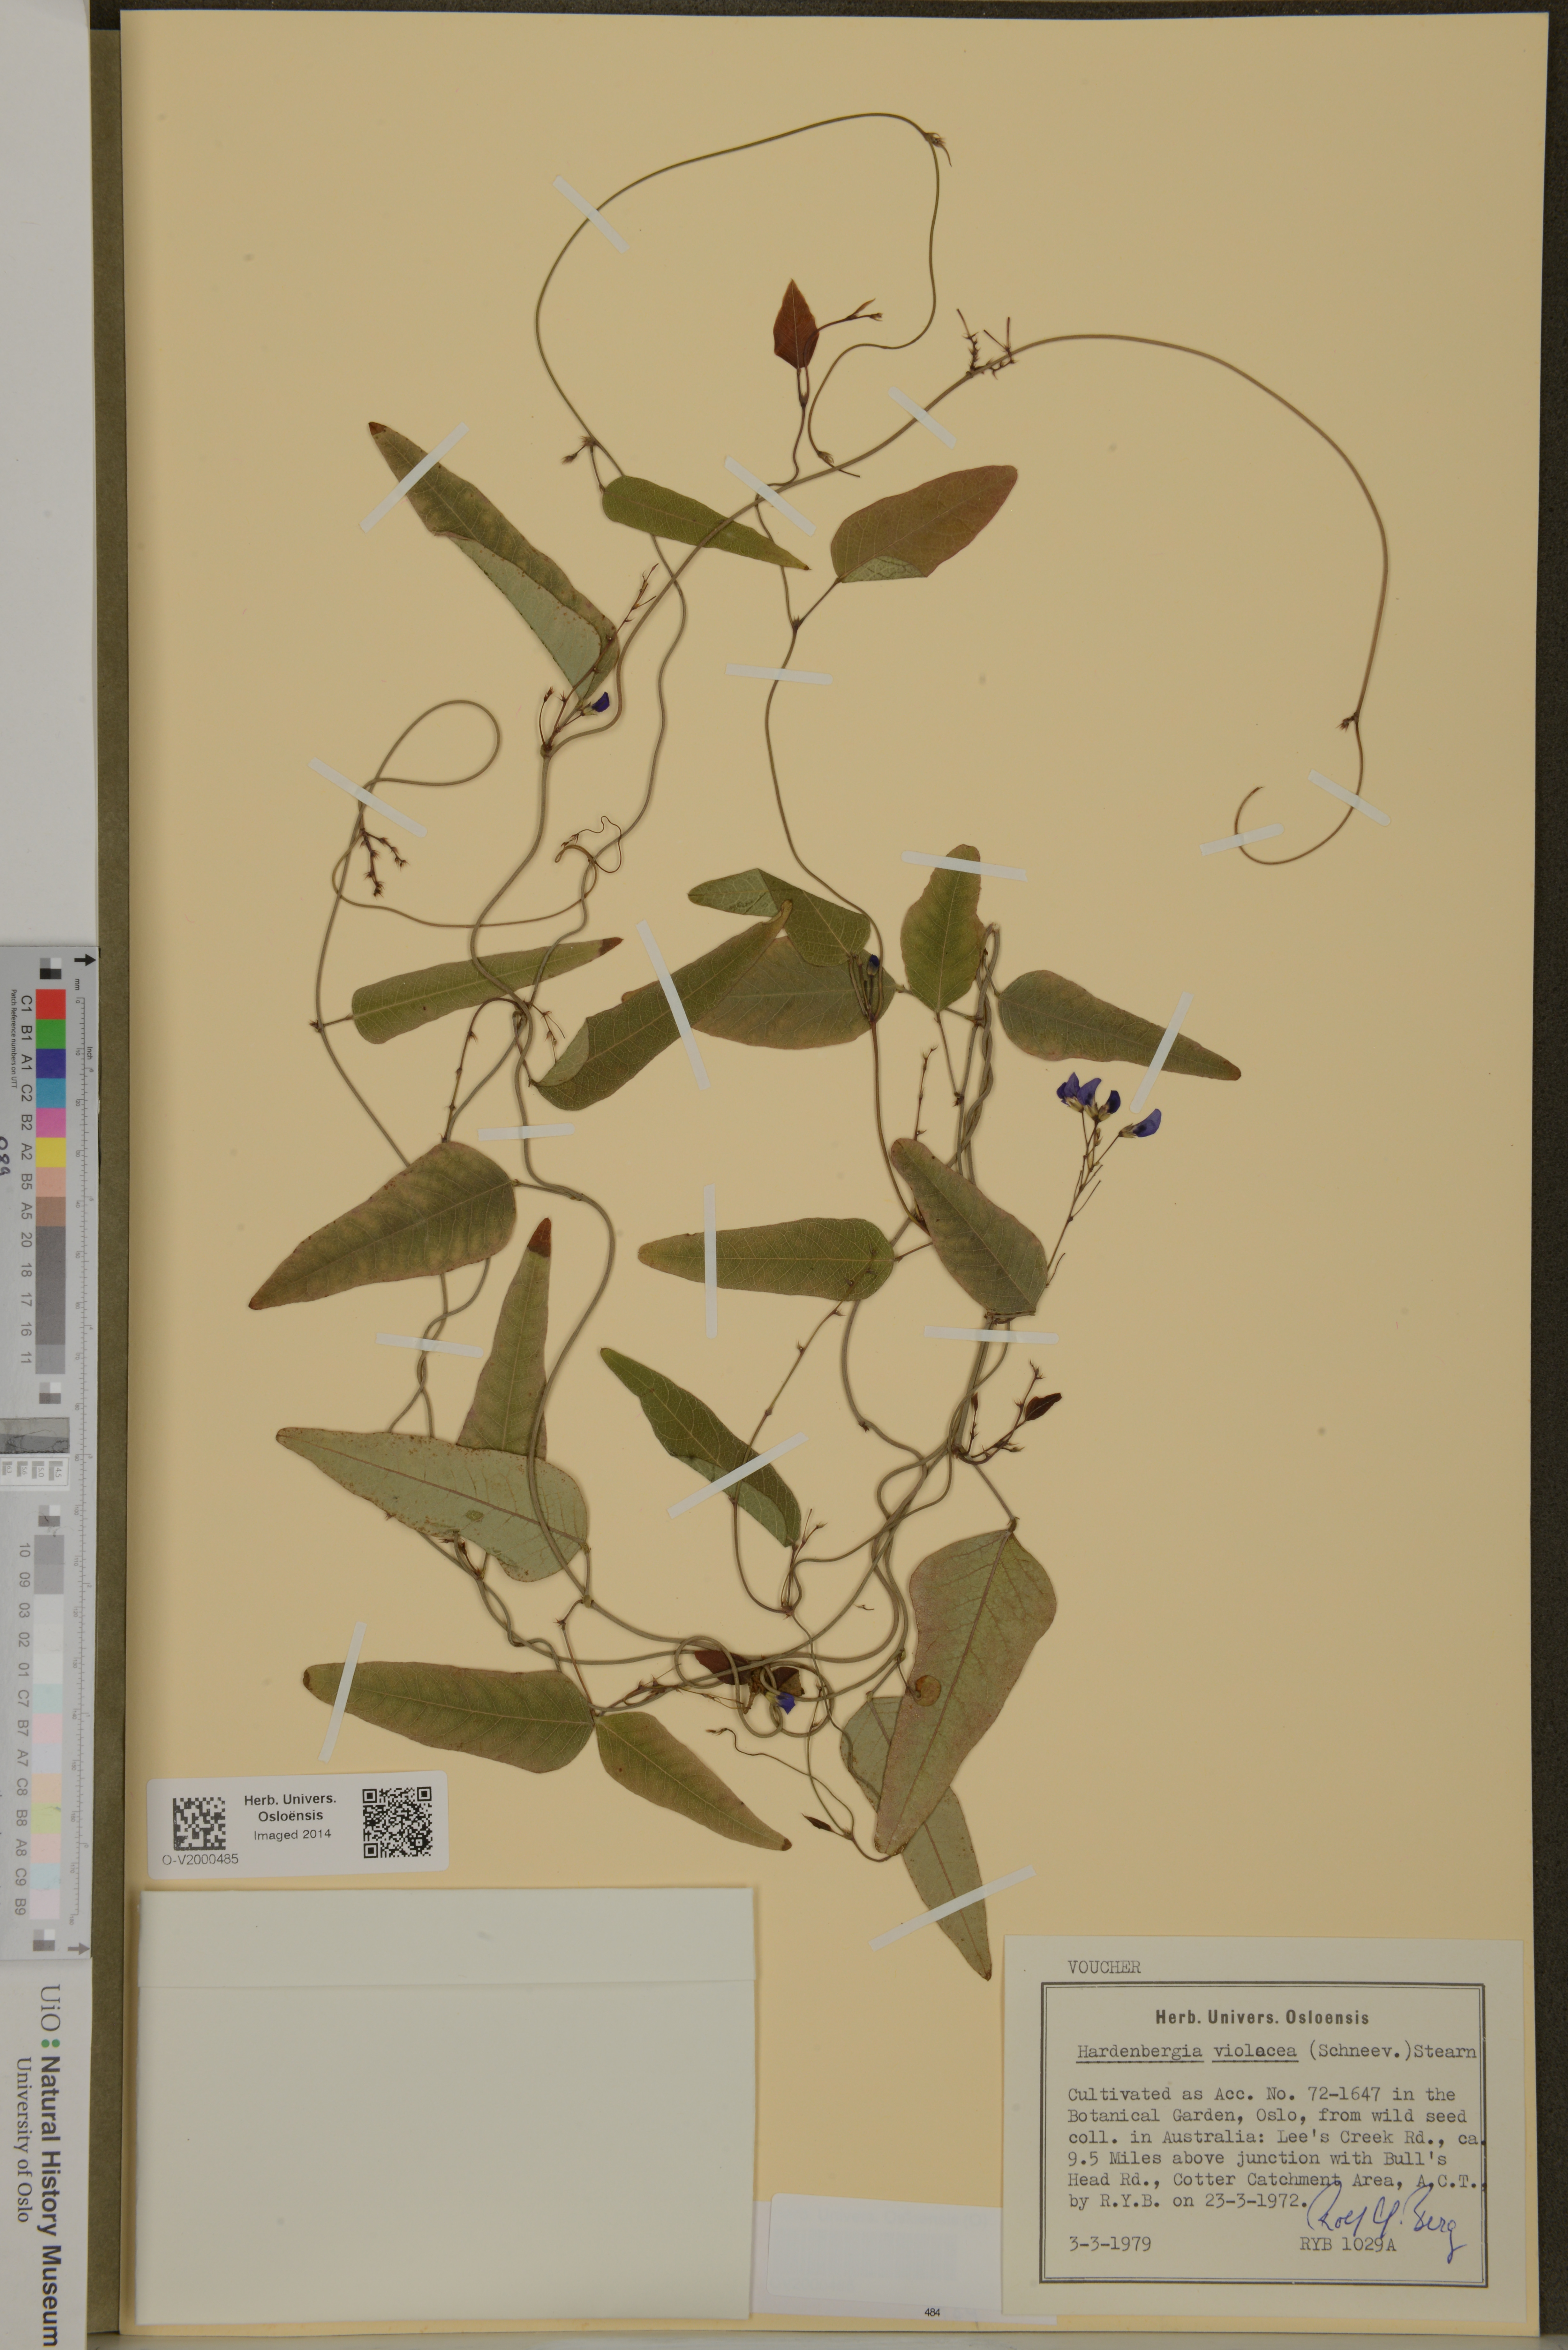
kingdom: Plantae
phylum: Tracheophyta
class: Magnoliopsida
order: Fabales
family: Fabaceae
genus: Hardenbergia
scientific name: Hardenbergia violacea
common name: Coral-pea
